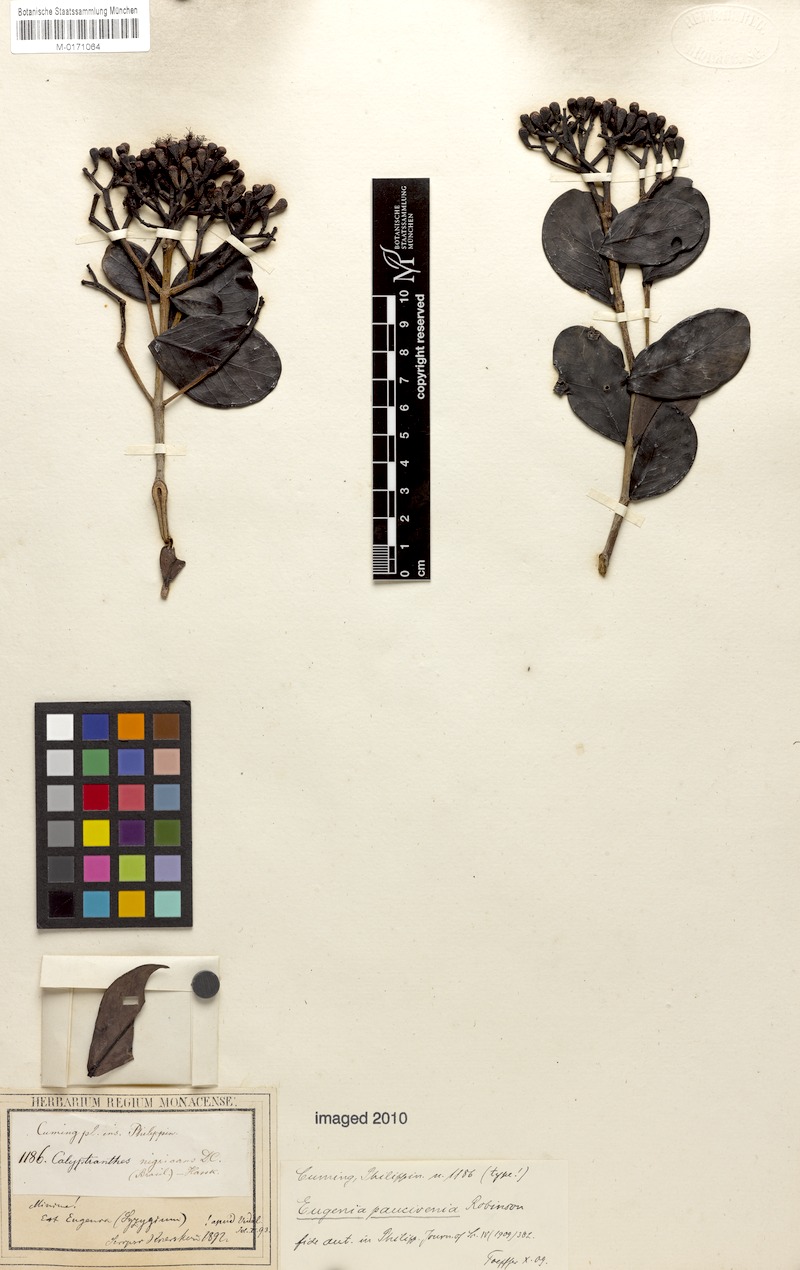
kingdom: Plantae
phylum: Tracheophyta
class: Magnoliopsida
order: Myrtales
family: Myrtaceae
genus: Syzygium
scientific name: Syzygium paucivenium
